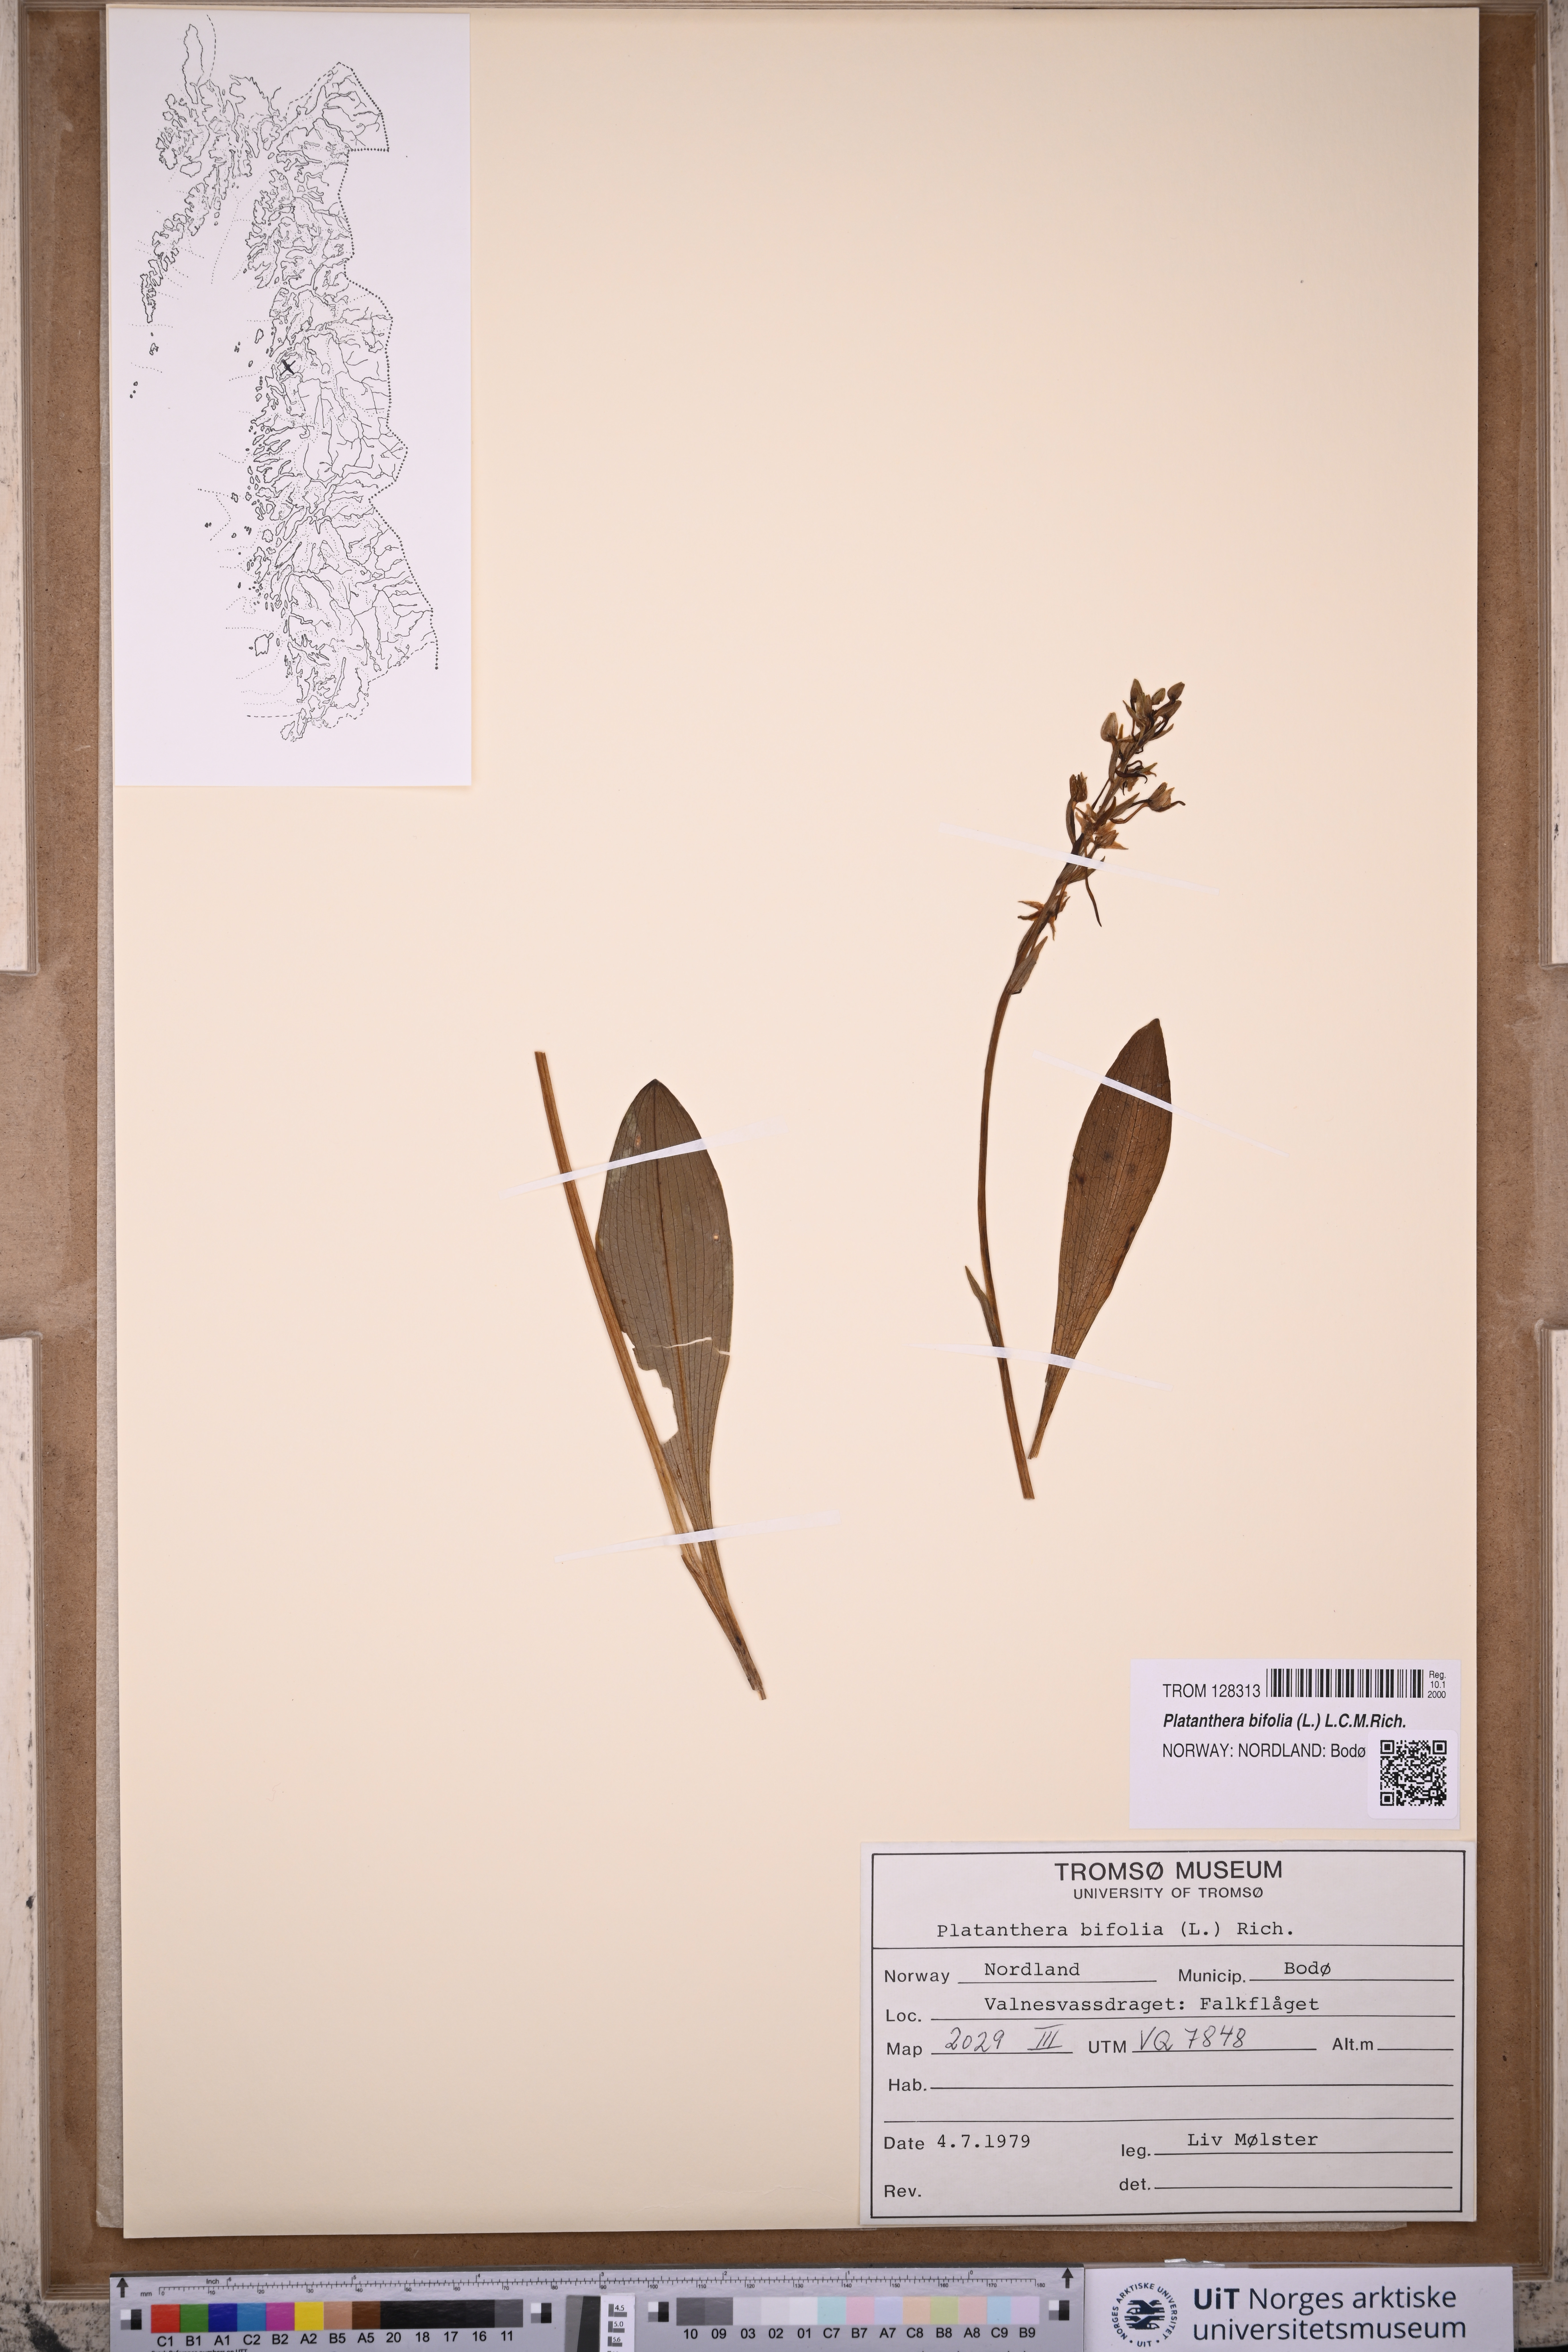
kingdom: Plantae
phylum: Tracheophyta
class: Liliopsida
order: Asparagales
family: Orchidaceae
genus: Platanthera
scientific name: Platanthera bifolia
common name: Lesser butterfly-orchid
